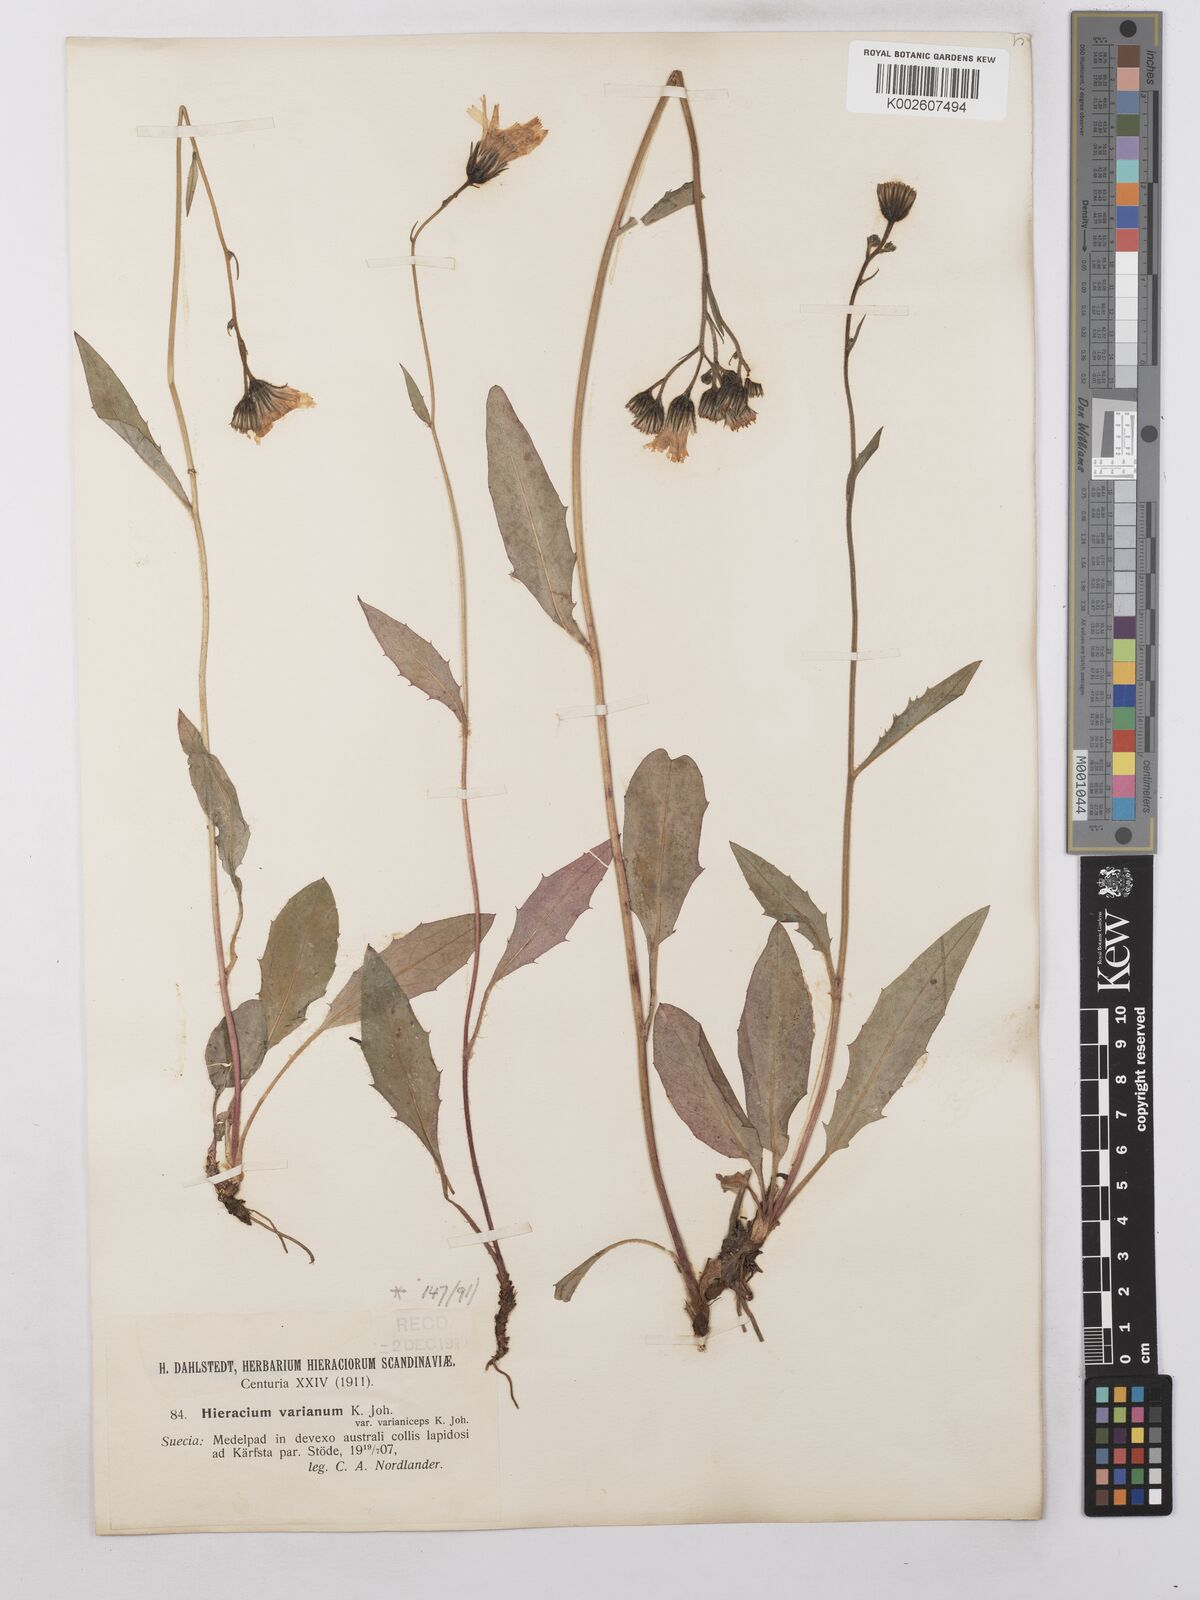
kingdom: Plantae
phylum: Tracheophyta
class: Magnoliopsida
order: Asterales
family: Asteraceae
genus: Hieracium
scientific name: Hieracium caesium
